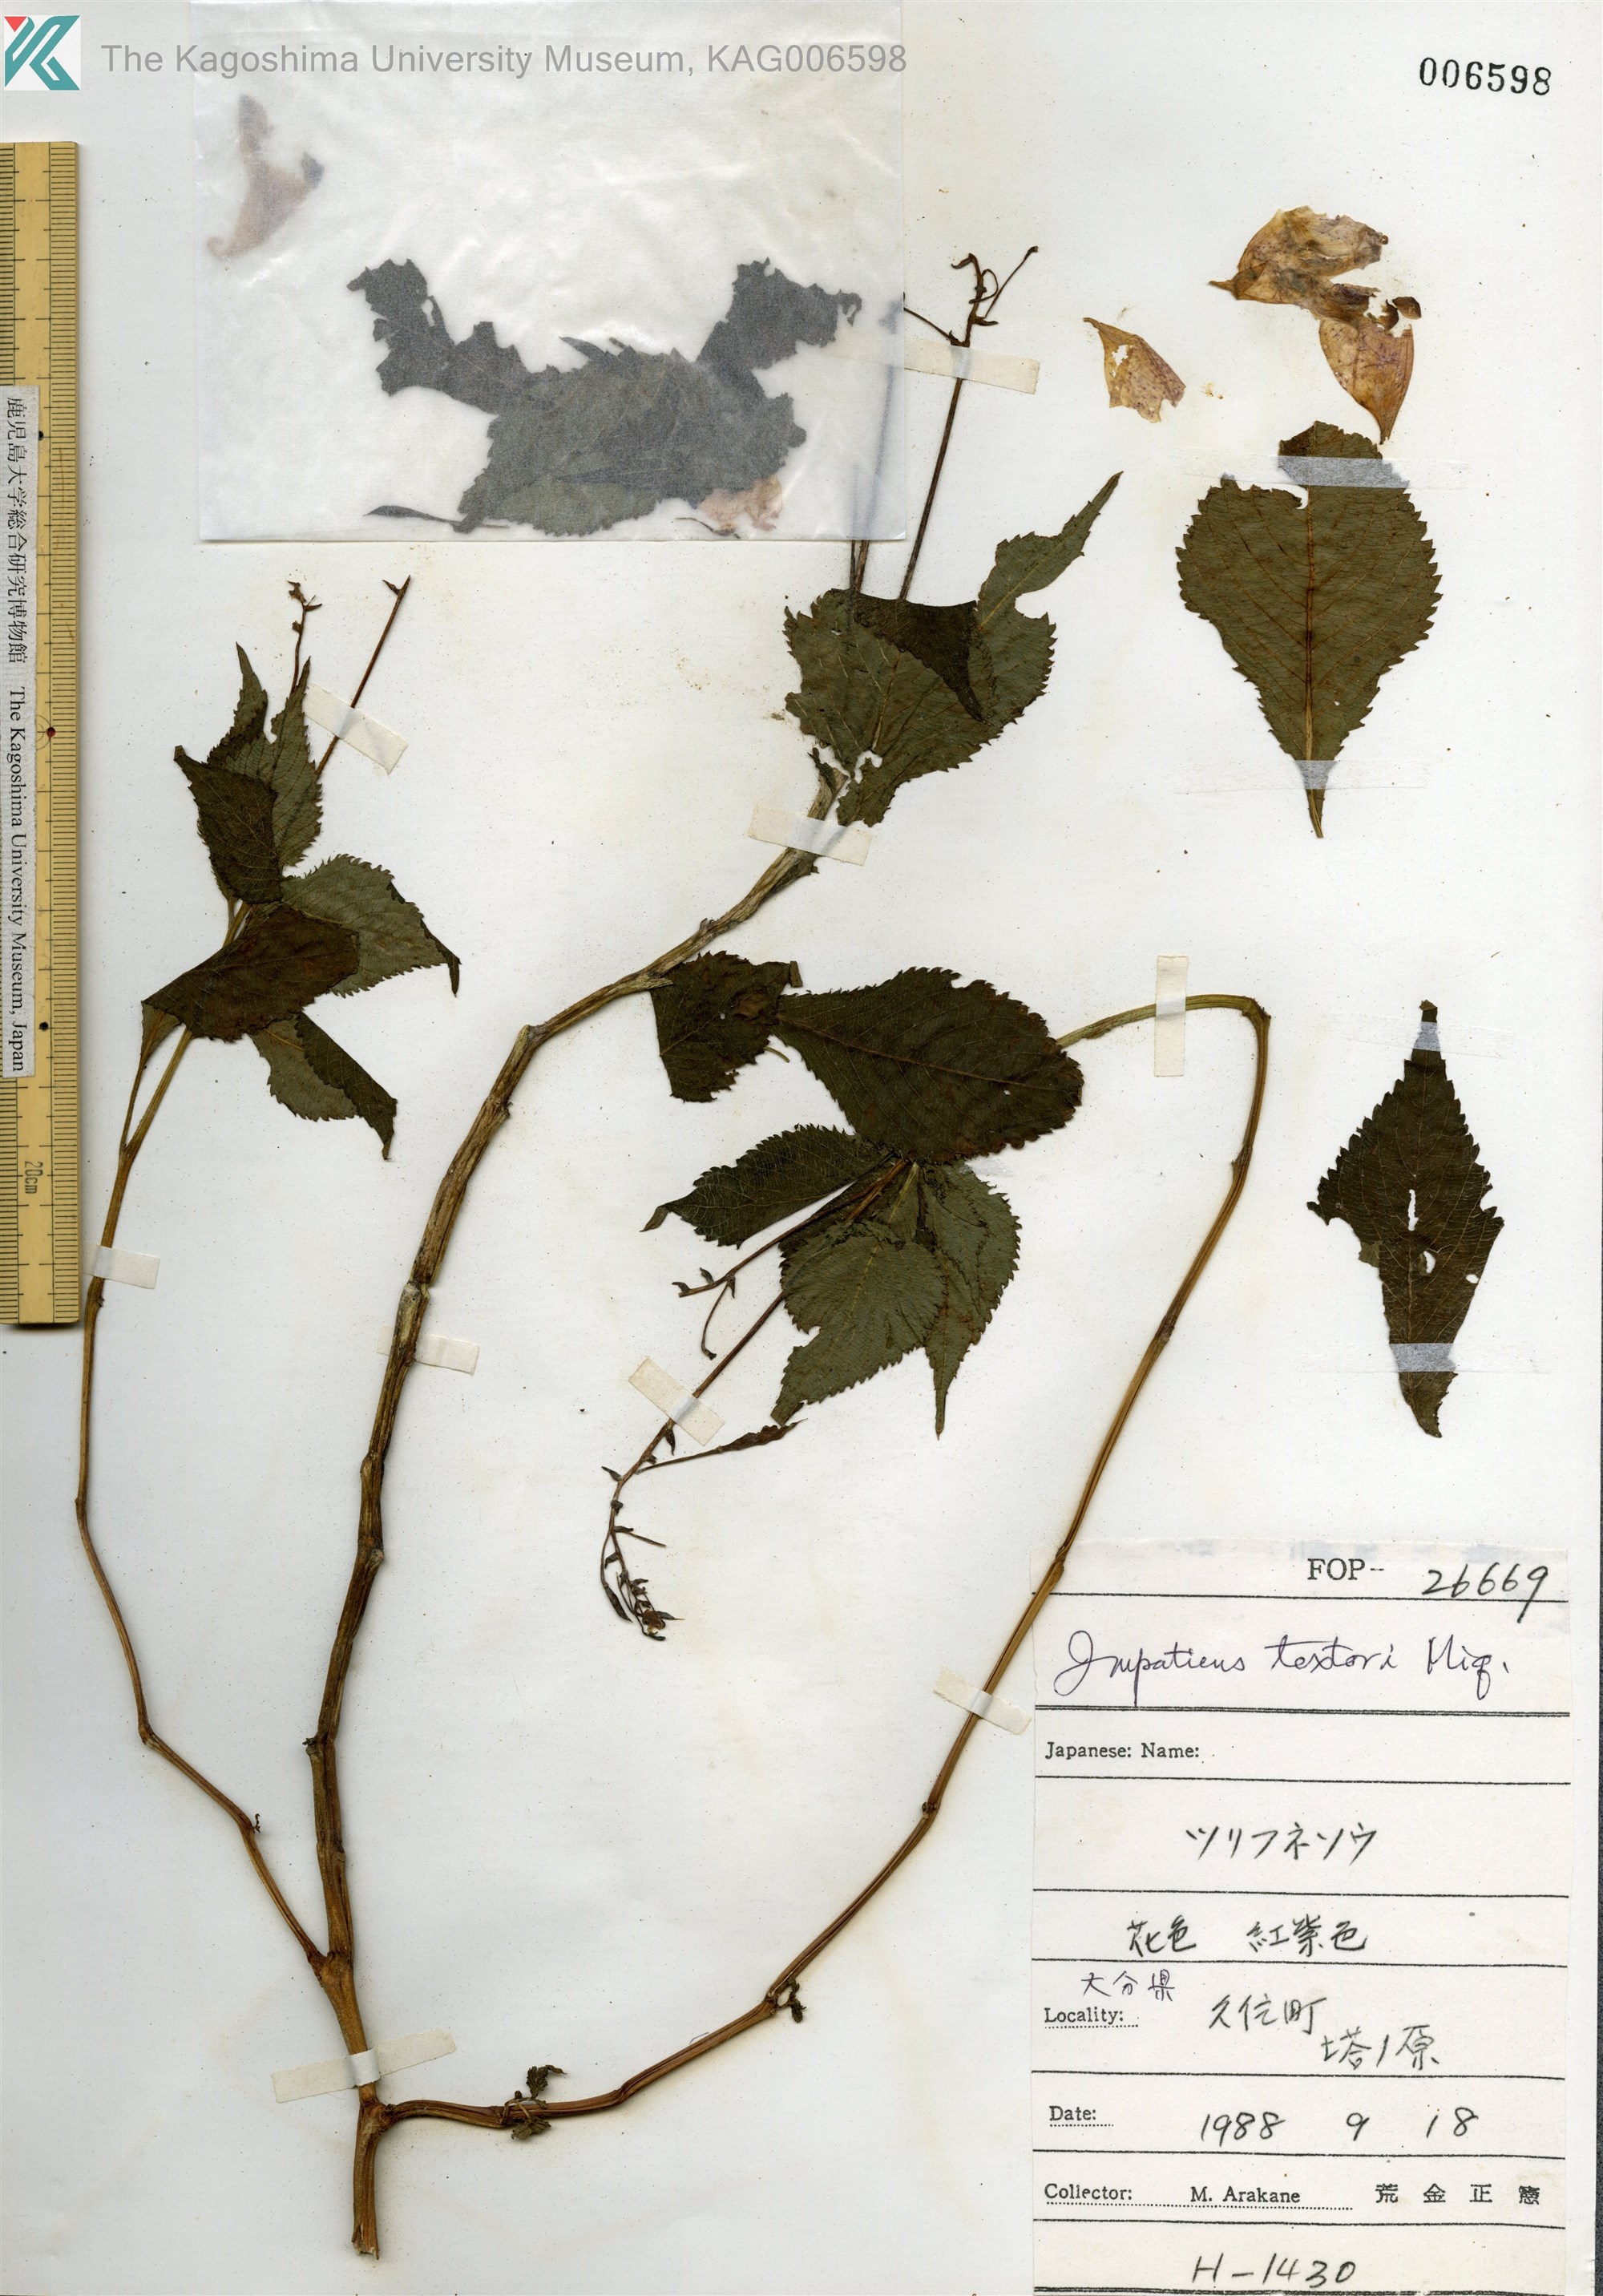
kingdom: Plantae
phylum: Tracheophyta
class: Magnoliopsida
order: Ericales
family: Balsaminaceae
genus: Impatiens
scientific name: Impatiens textorii
